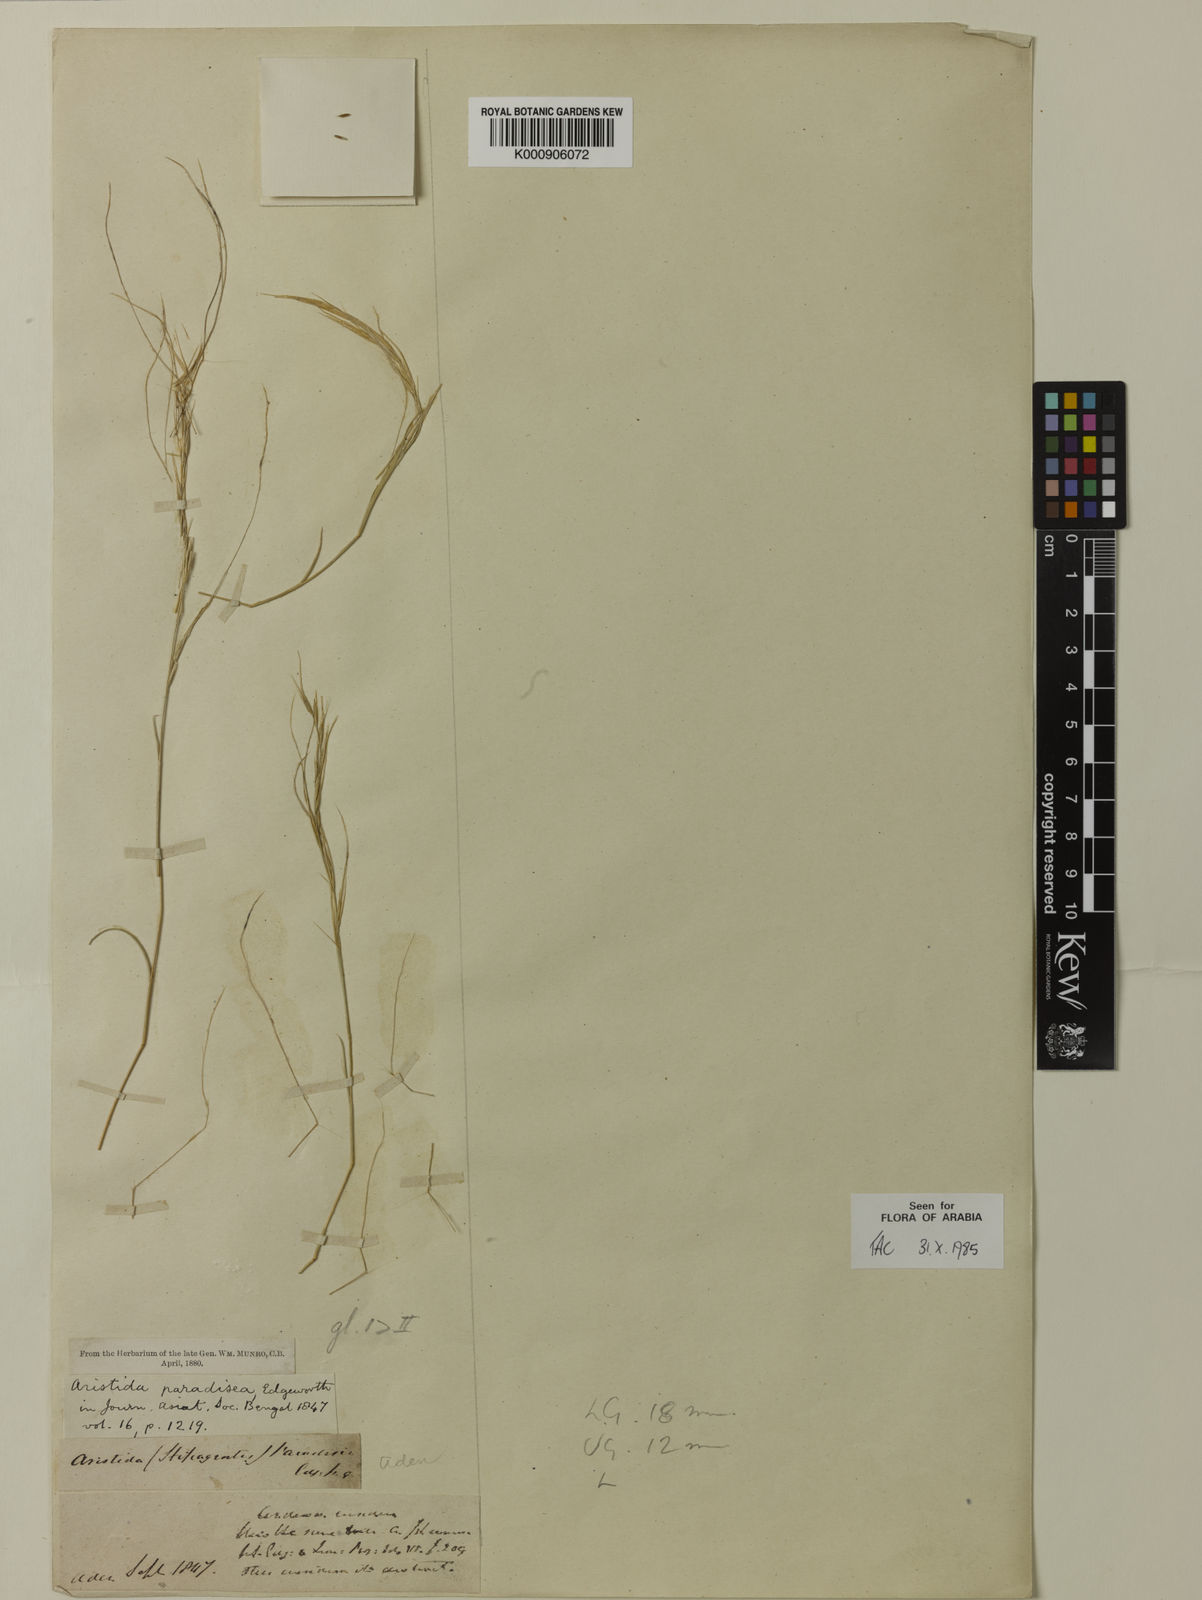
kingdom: Plantae
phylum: Tracheophyta
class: Liliopsida
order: Poales
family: Poaceae
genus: Stipagrostis
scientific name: Stipagrostis paradisea
